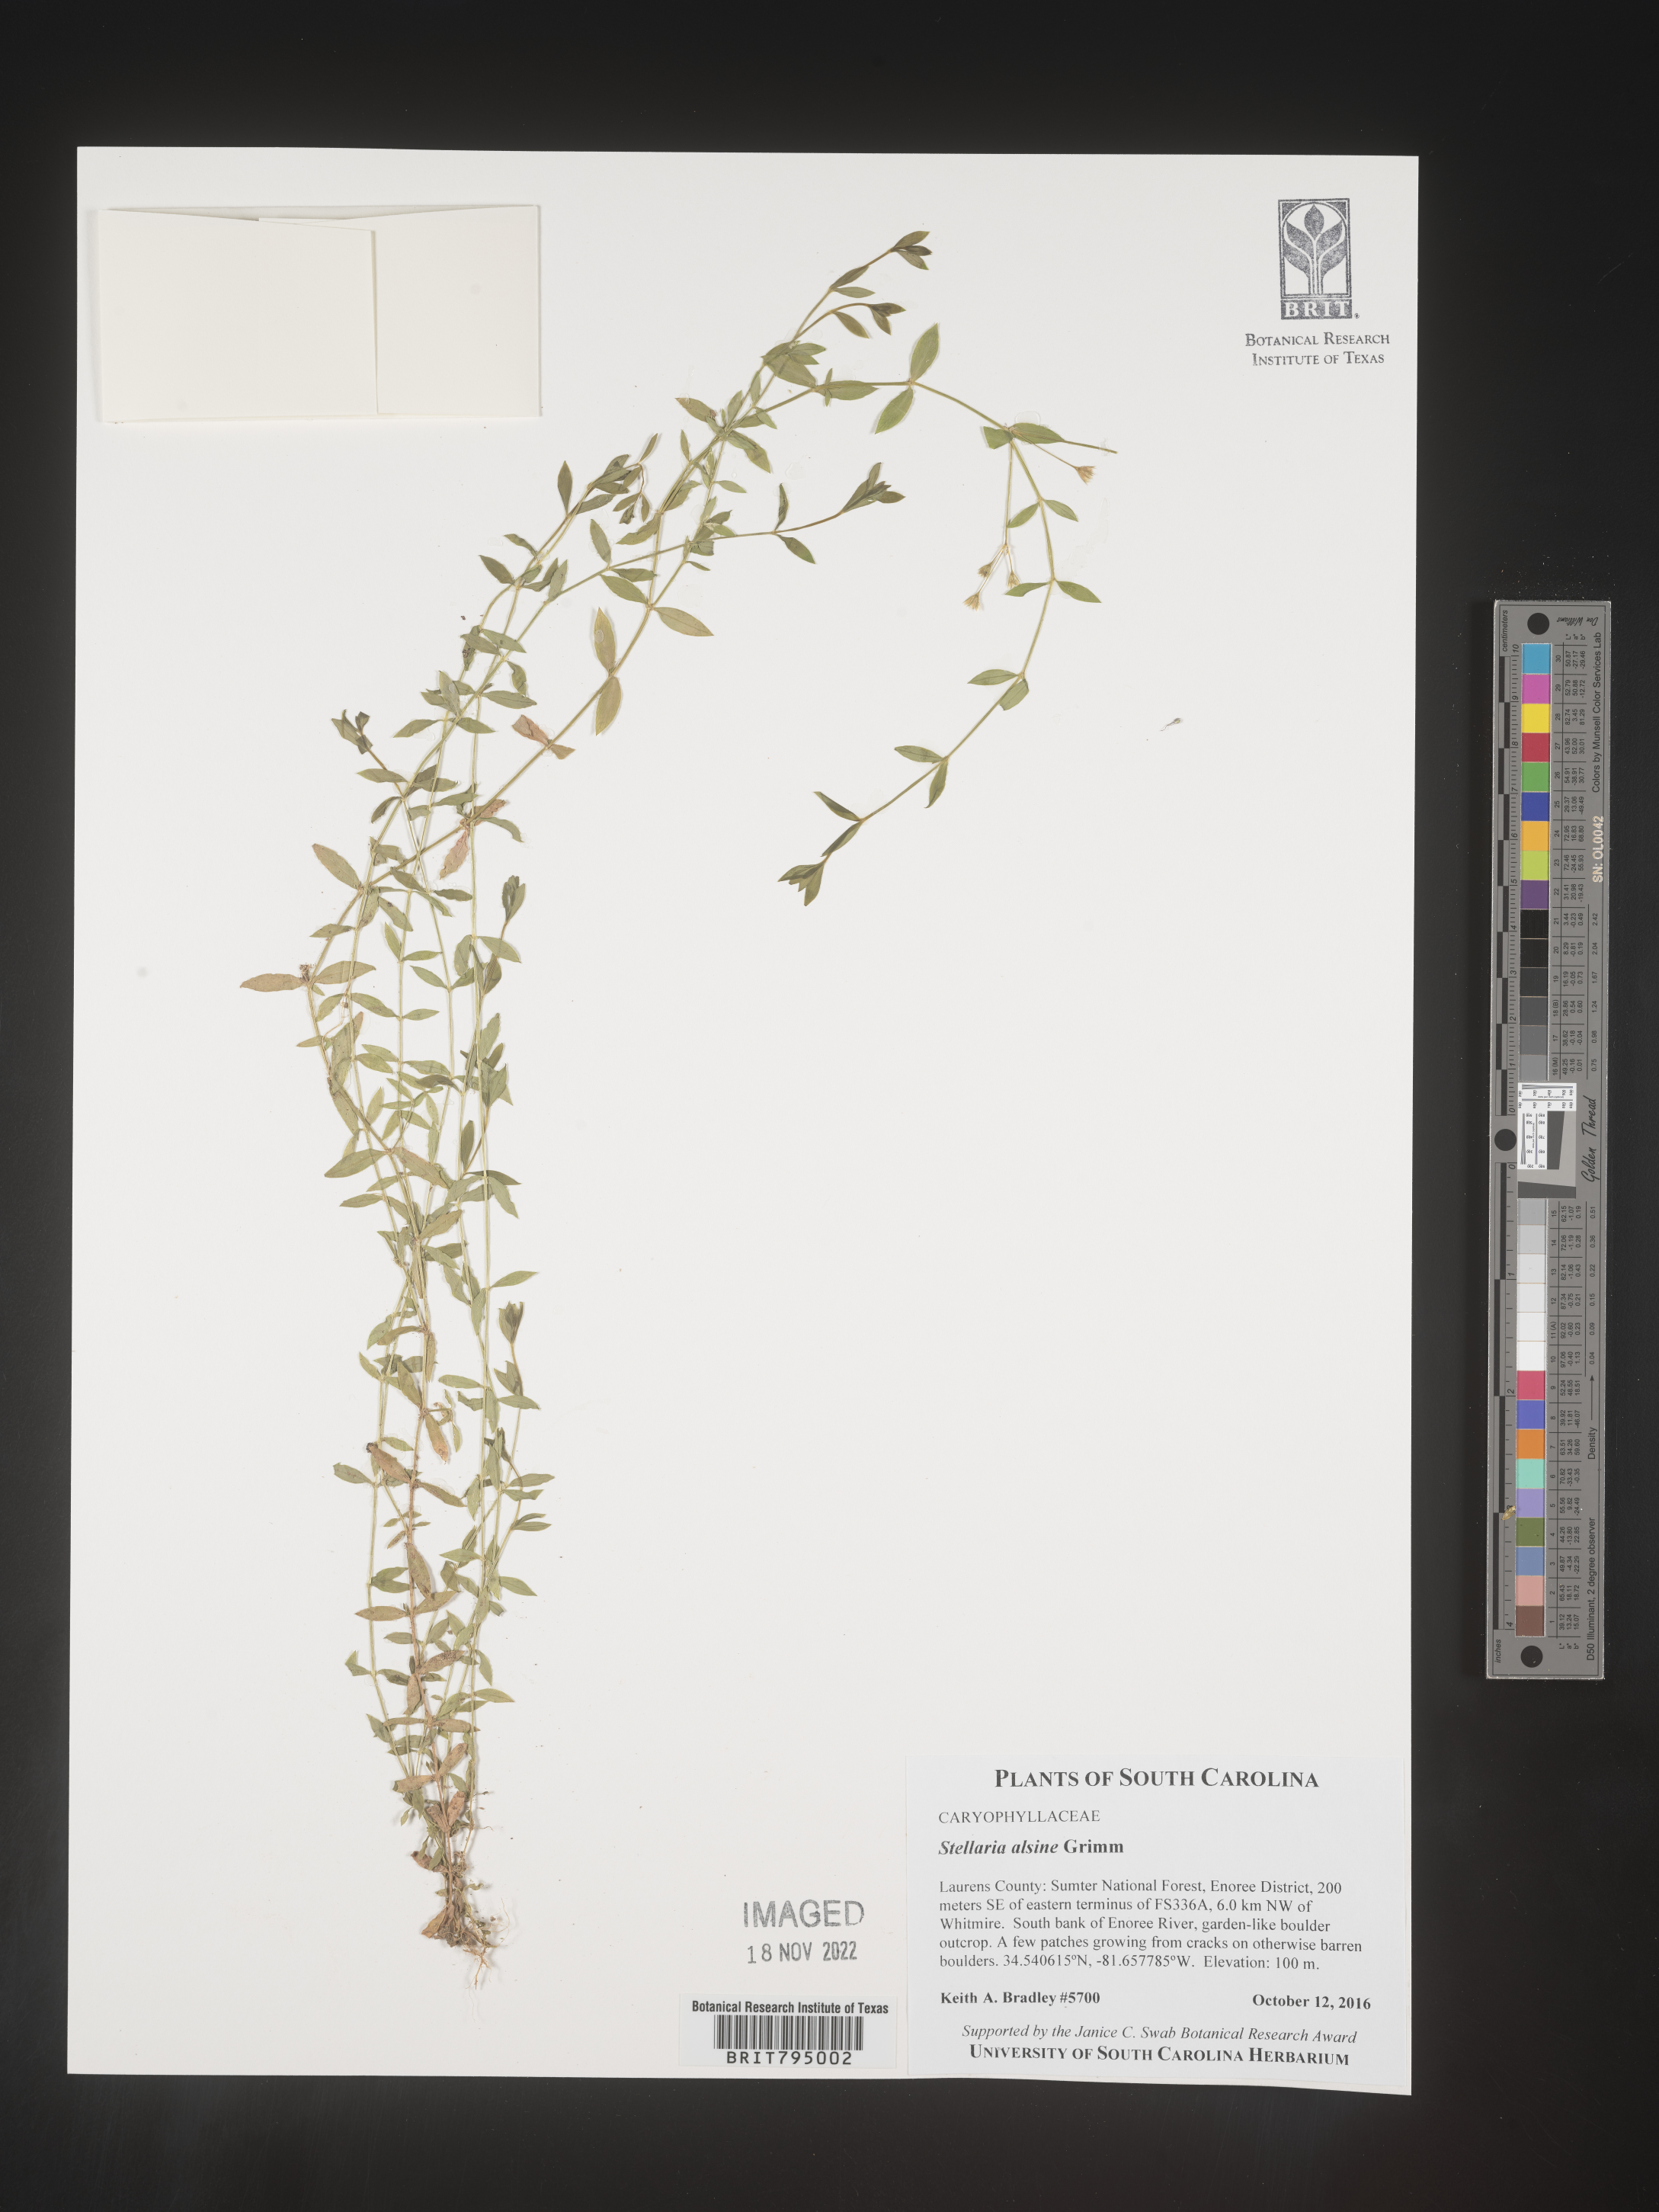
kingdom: Plantae
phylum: Tracheophyta
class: Magnoliopsida
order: Caryophyllales
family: Caryophyllaceae
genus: Stellaria
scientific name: Stellaria alsine
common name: Bog stitchwort
